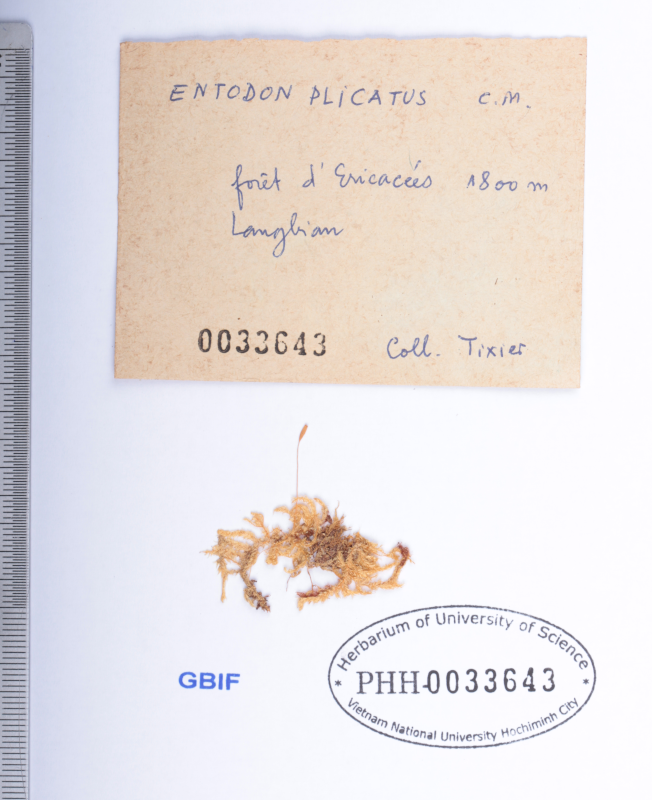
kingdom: Plantae
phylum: Bryophyta
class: Bryopsida
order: Hypnales
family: Entodontaceae
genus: Entodon
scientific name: Entodon plicatus
